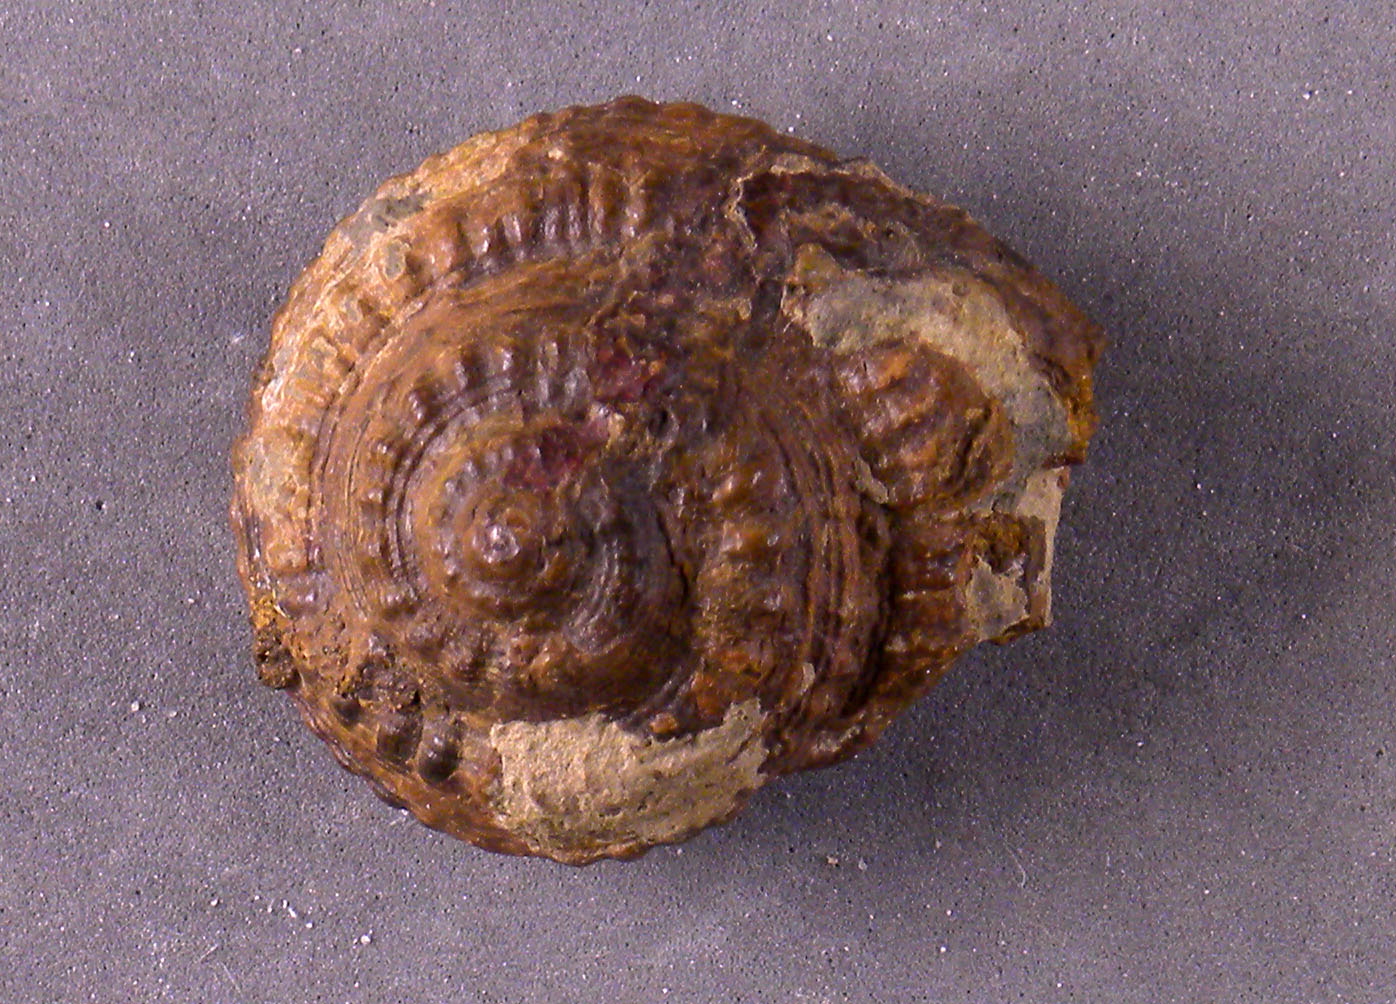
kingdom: Animalia
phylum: Mollusca
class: Gastropoda
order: Pleurotomariida
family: Pleurotomariidae
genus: Obornella
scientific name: Obornella Pleurotomaria lentiformis
